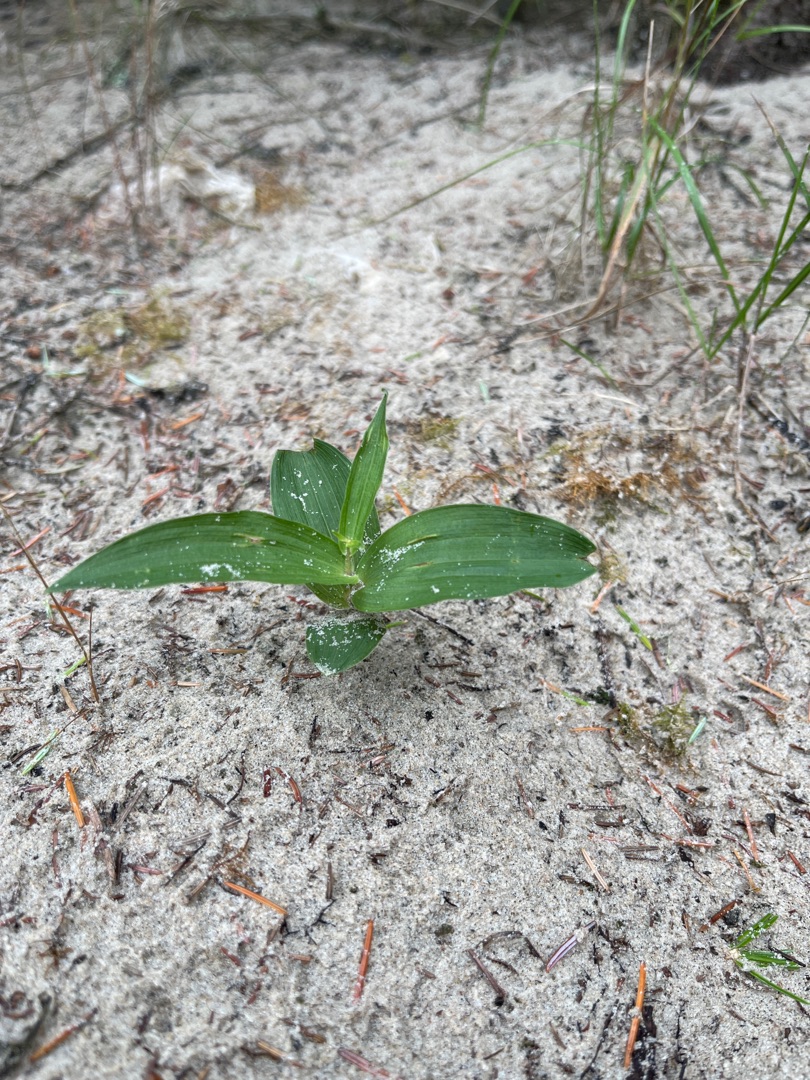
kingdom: Plantae
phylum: Tracheophyta
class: Liliopsida
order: Asparagales
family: Orchidaceae
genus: Epipactis
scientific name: Epipactis helleborine
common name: Skov-hullæbe
